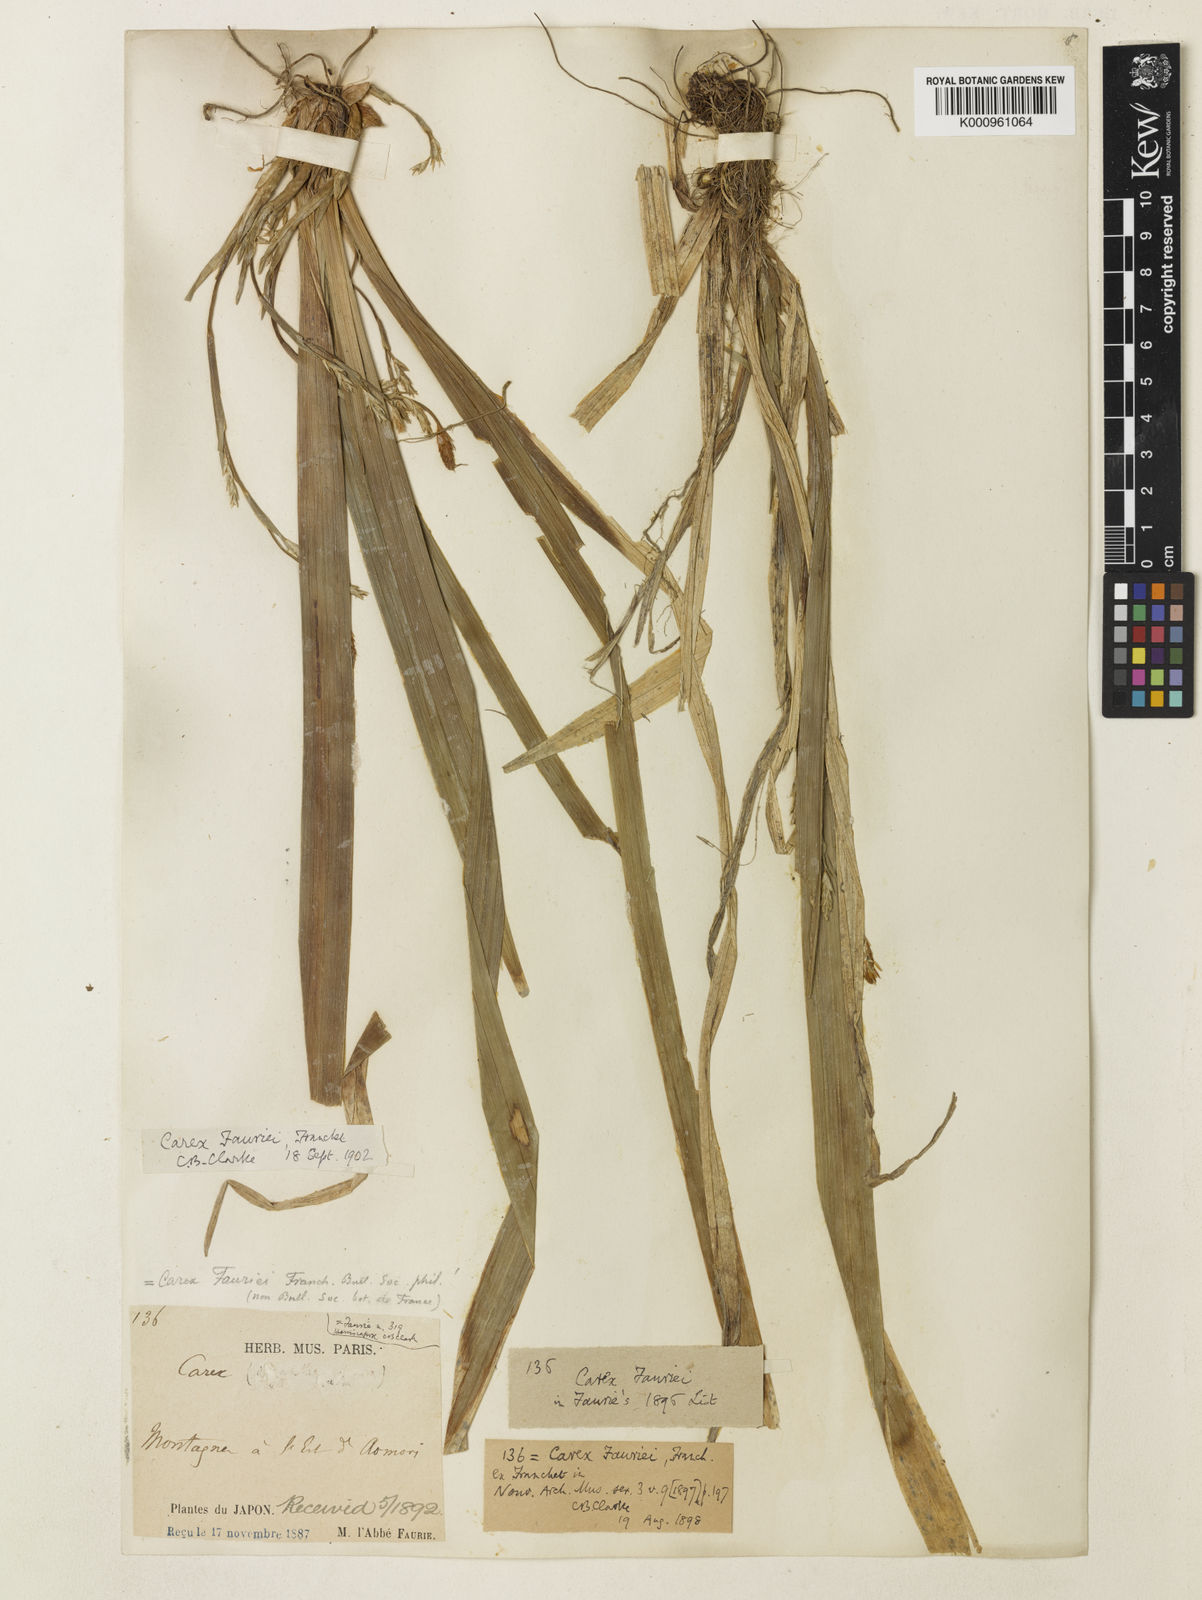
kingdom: Plantae
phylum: Tracheophyta
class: Liliopsida
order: Poales
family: Cyperaceae
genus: Carex
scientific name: Carex phacota
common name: Lakeshore sedge
